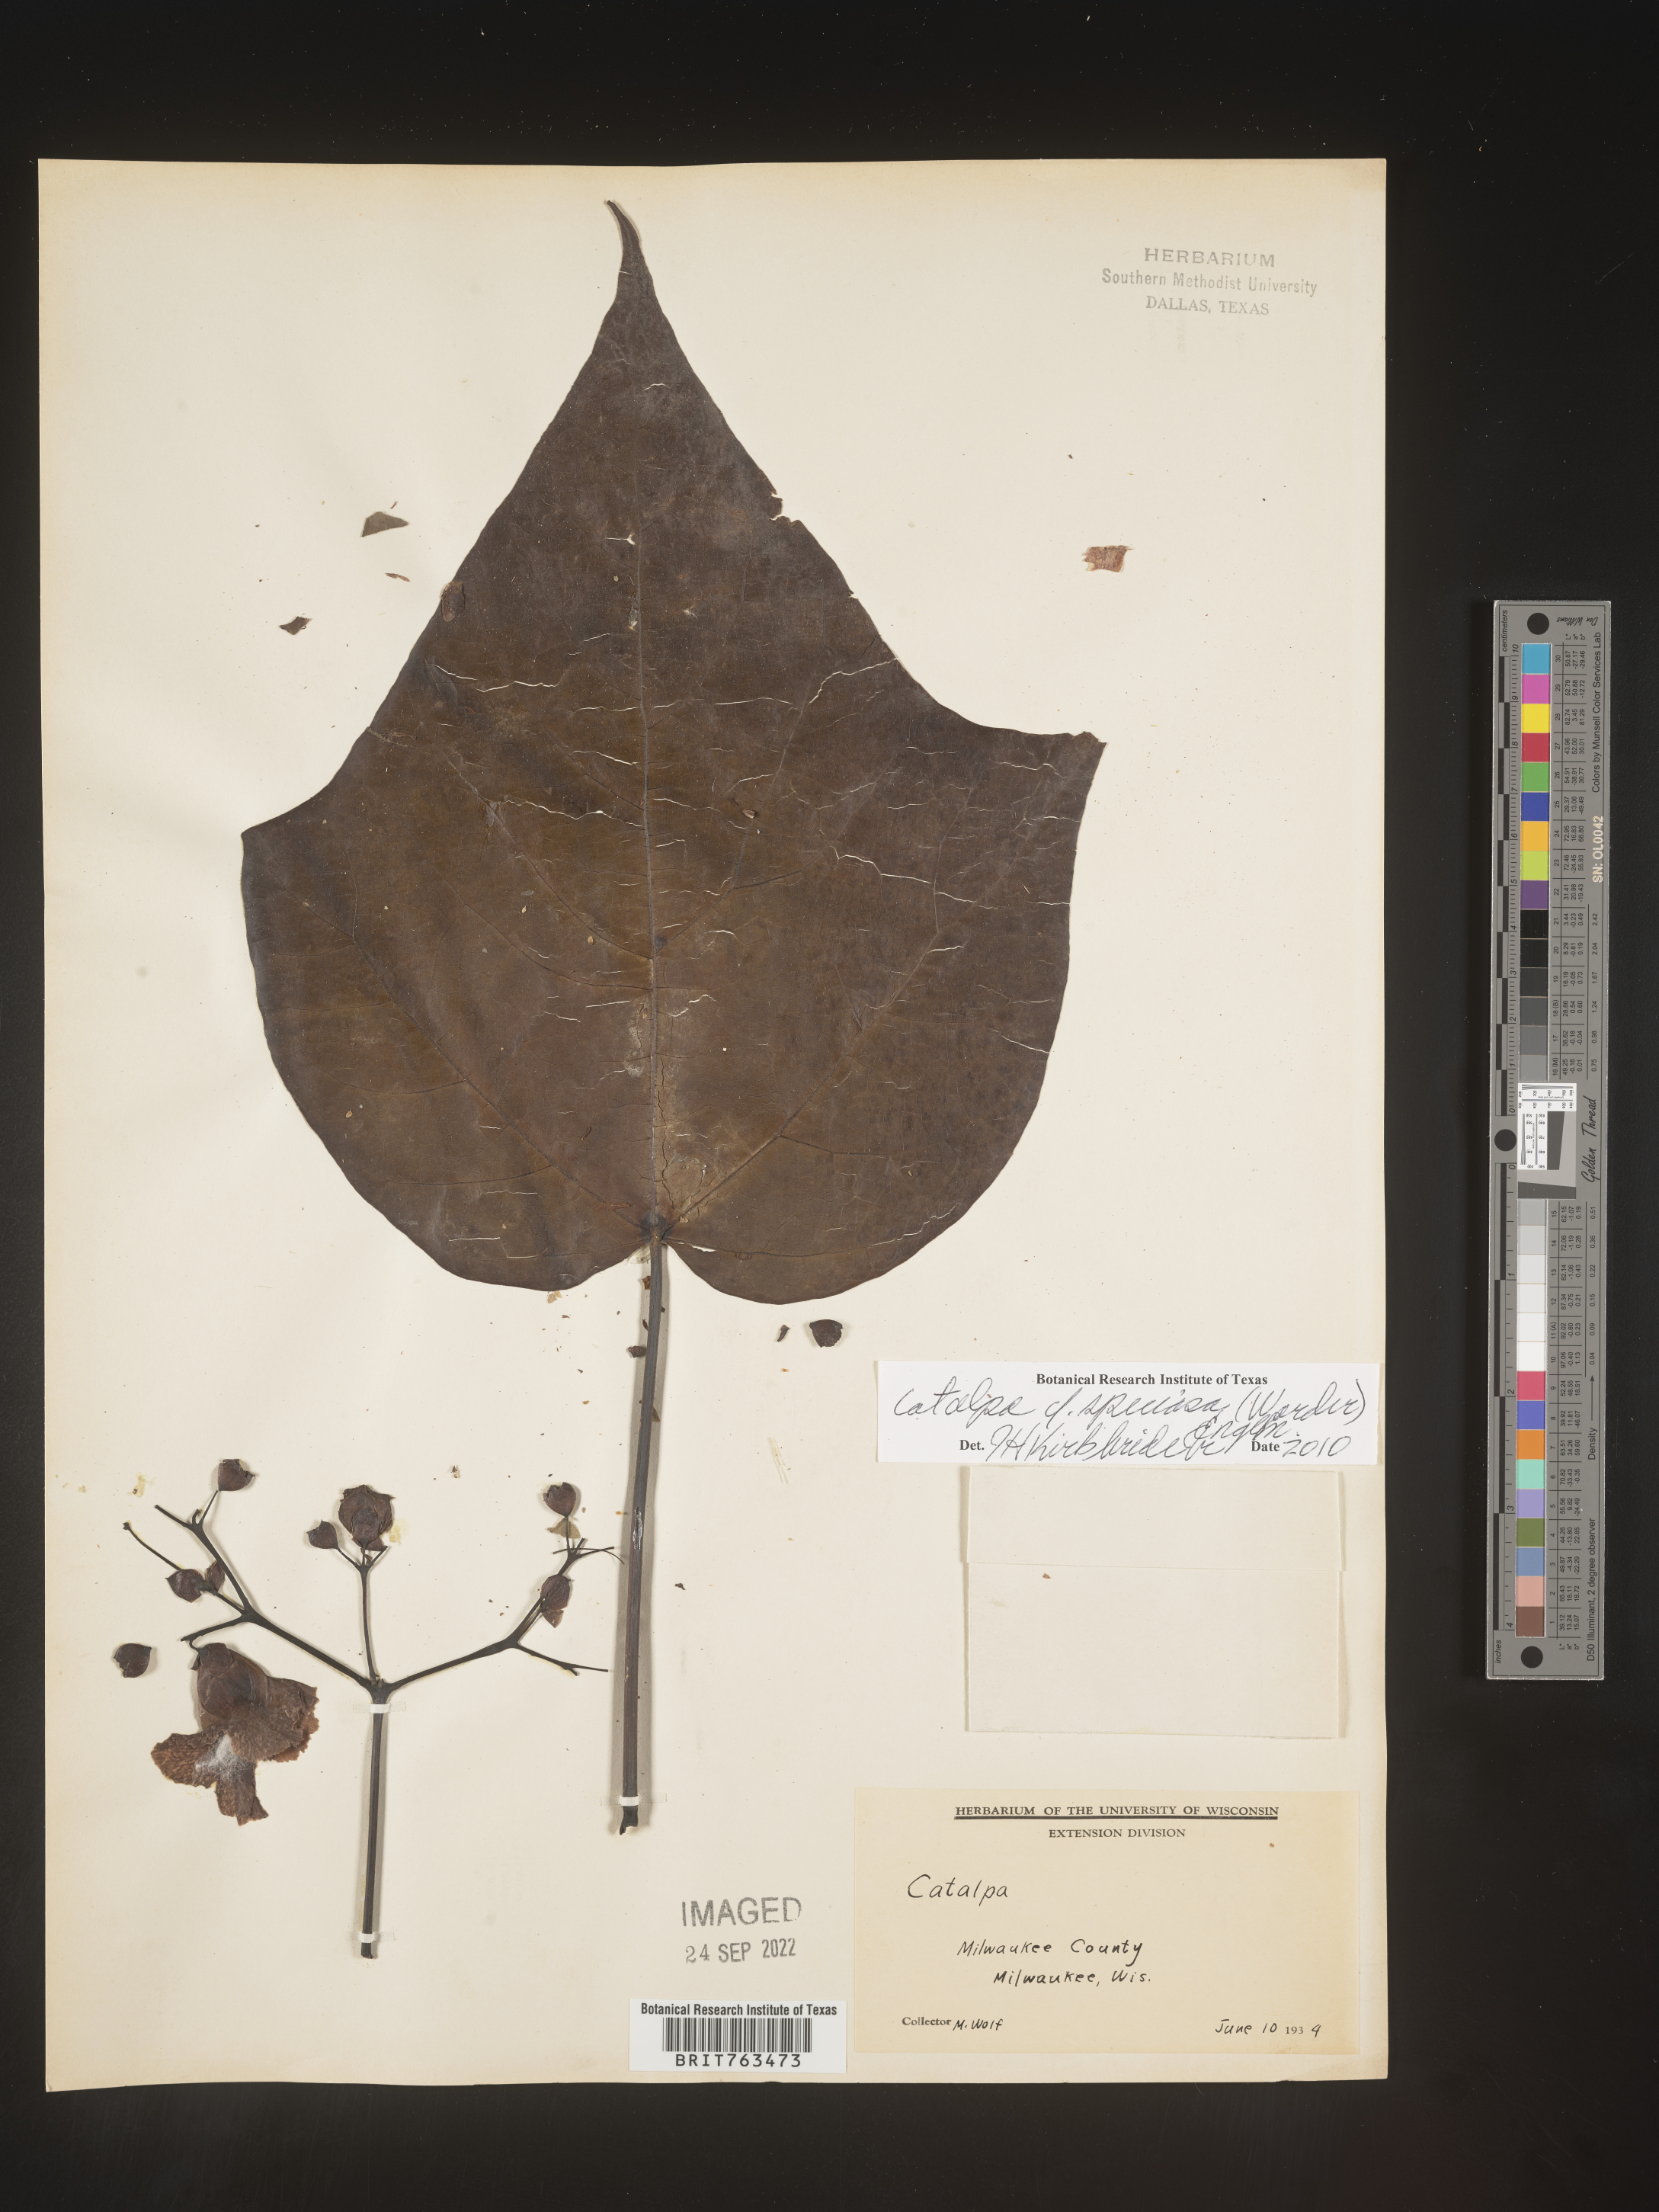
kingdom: Plantae
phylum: Tracheophyta
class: Magnoliopsida
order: Lamiales
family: Bignoniaceae
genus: Catalpa
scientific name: Catalpa speciosa
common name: Northern catalpa
